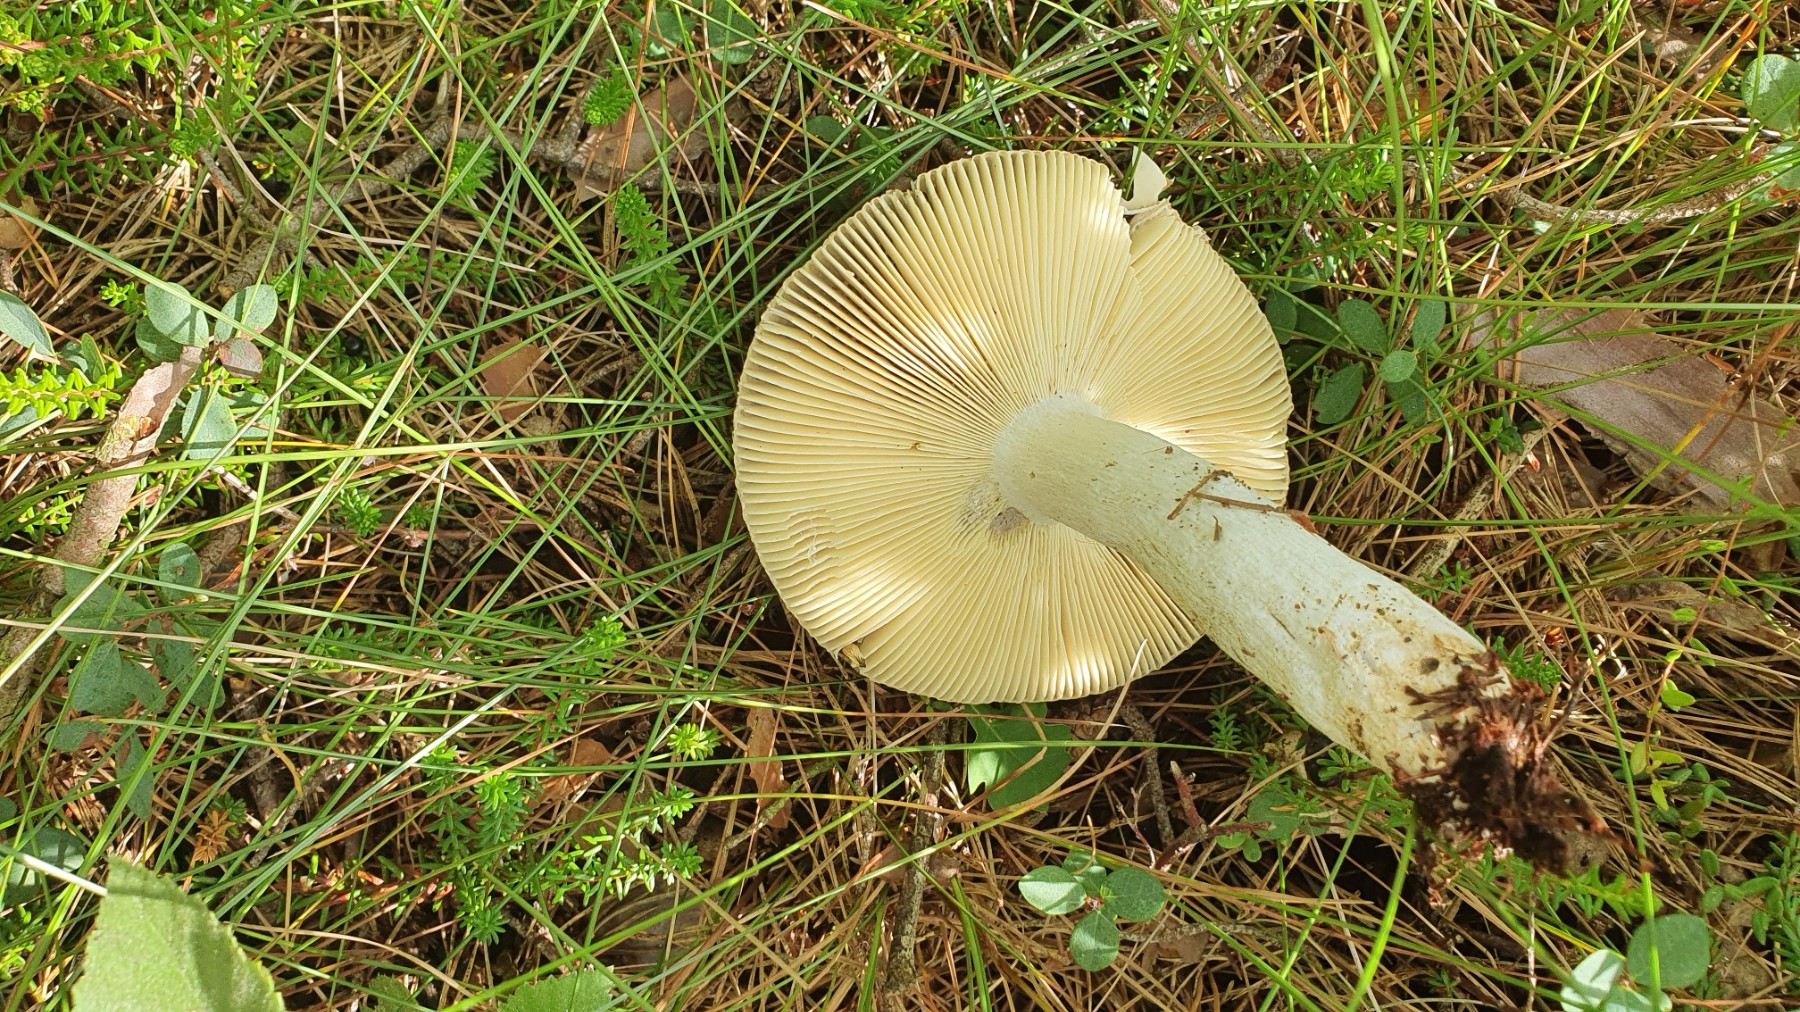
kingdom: Fungi
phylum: Basidiomycota
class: Agaricomycetes
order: Russulales
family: Russulaceae
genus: Russula
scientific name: Russula decolorans
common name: afblegende skørhat
